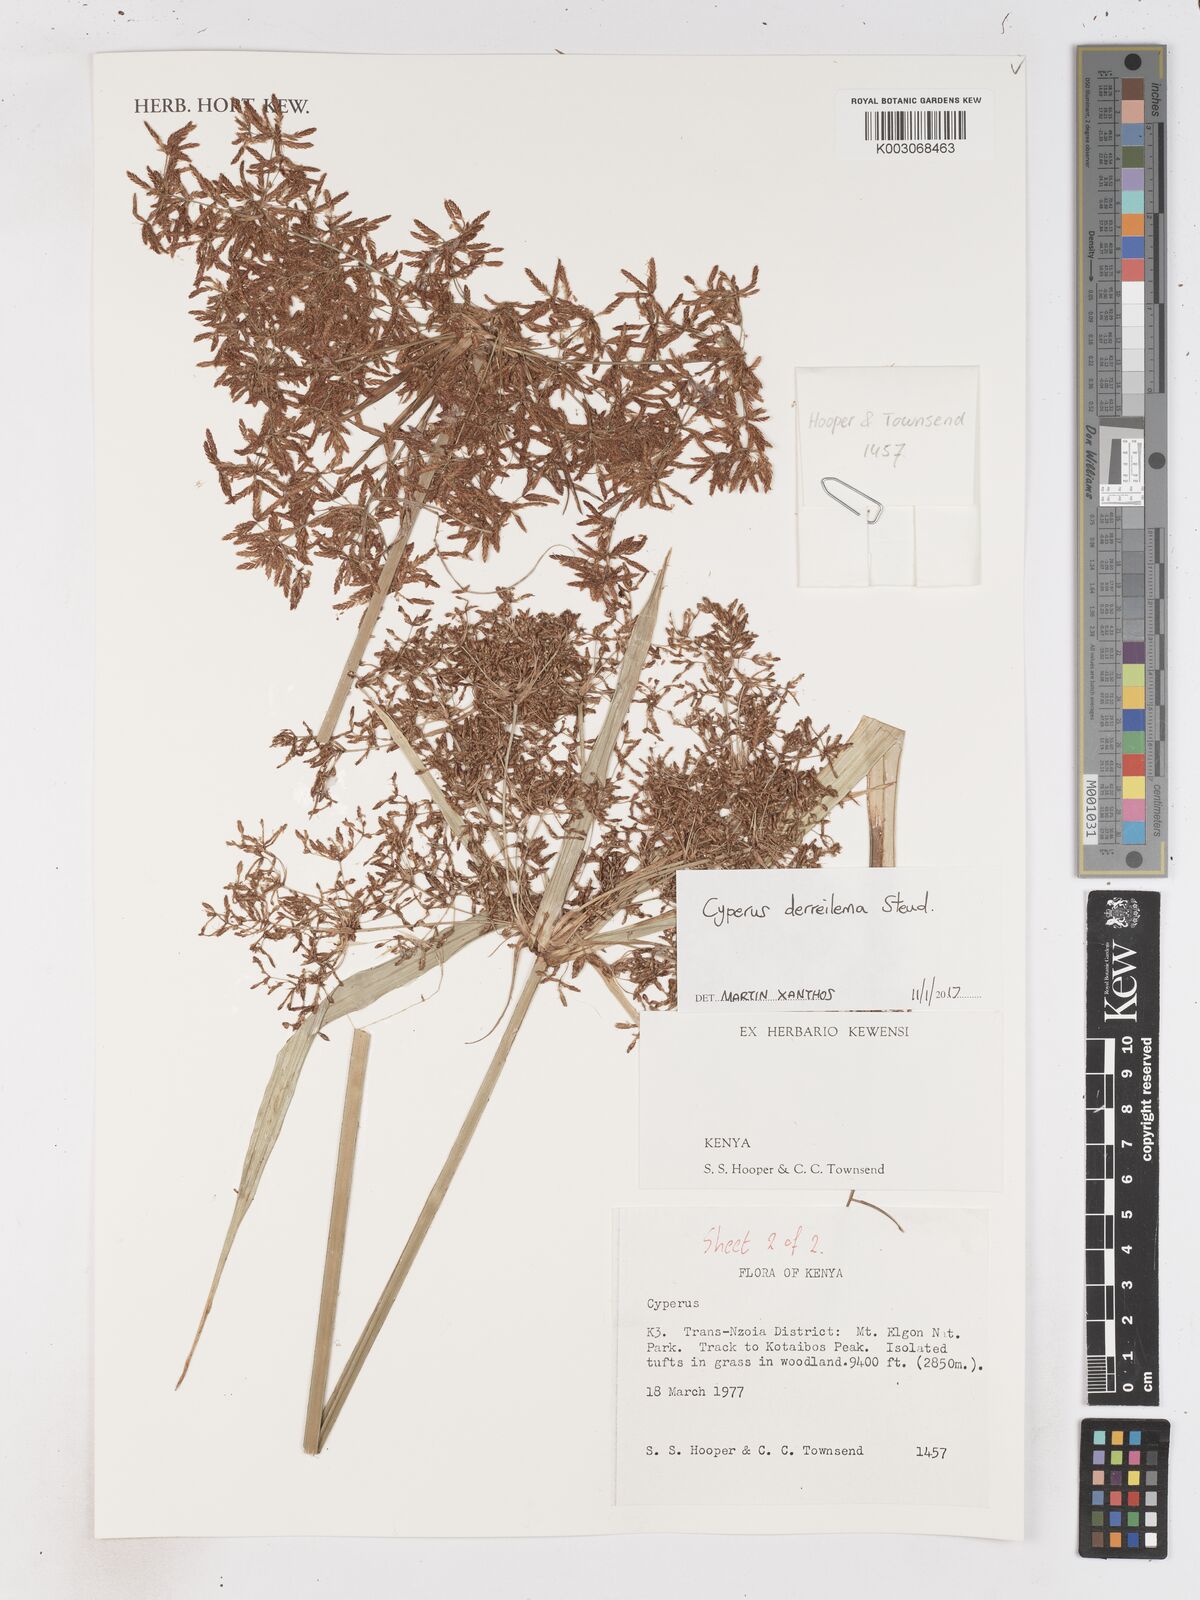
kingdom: Plantae
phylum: Tracheophyta
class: Liliopsida
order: Poales
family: Cyperaceae
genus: Cyperus
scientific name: Cyperus derreilema
